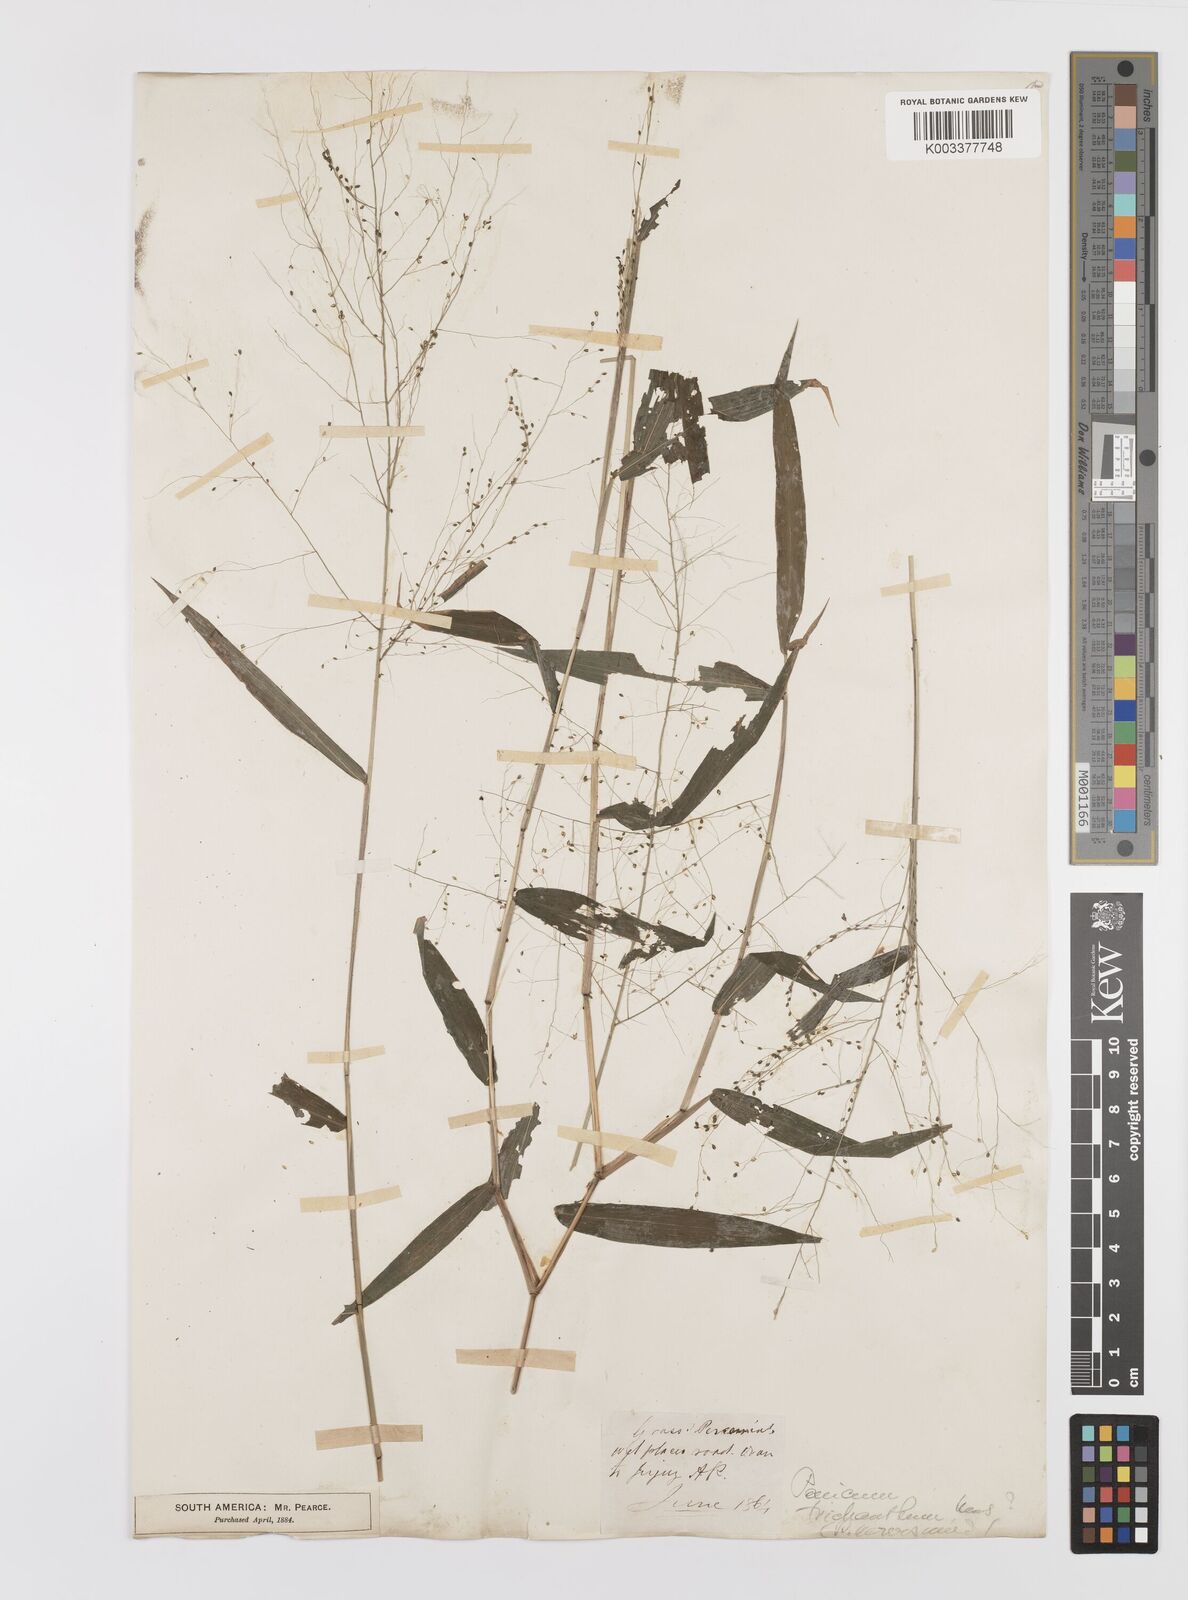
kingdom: Plantae
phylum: Tracheophyta
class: Liliopsida
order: Poales
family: Poaceae
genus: Panicum
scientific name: Panicum trichanthum
